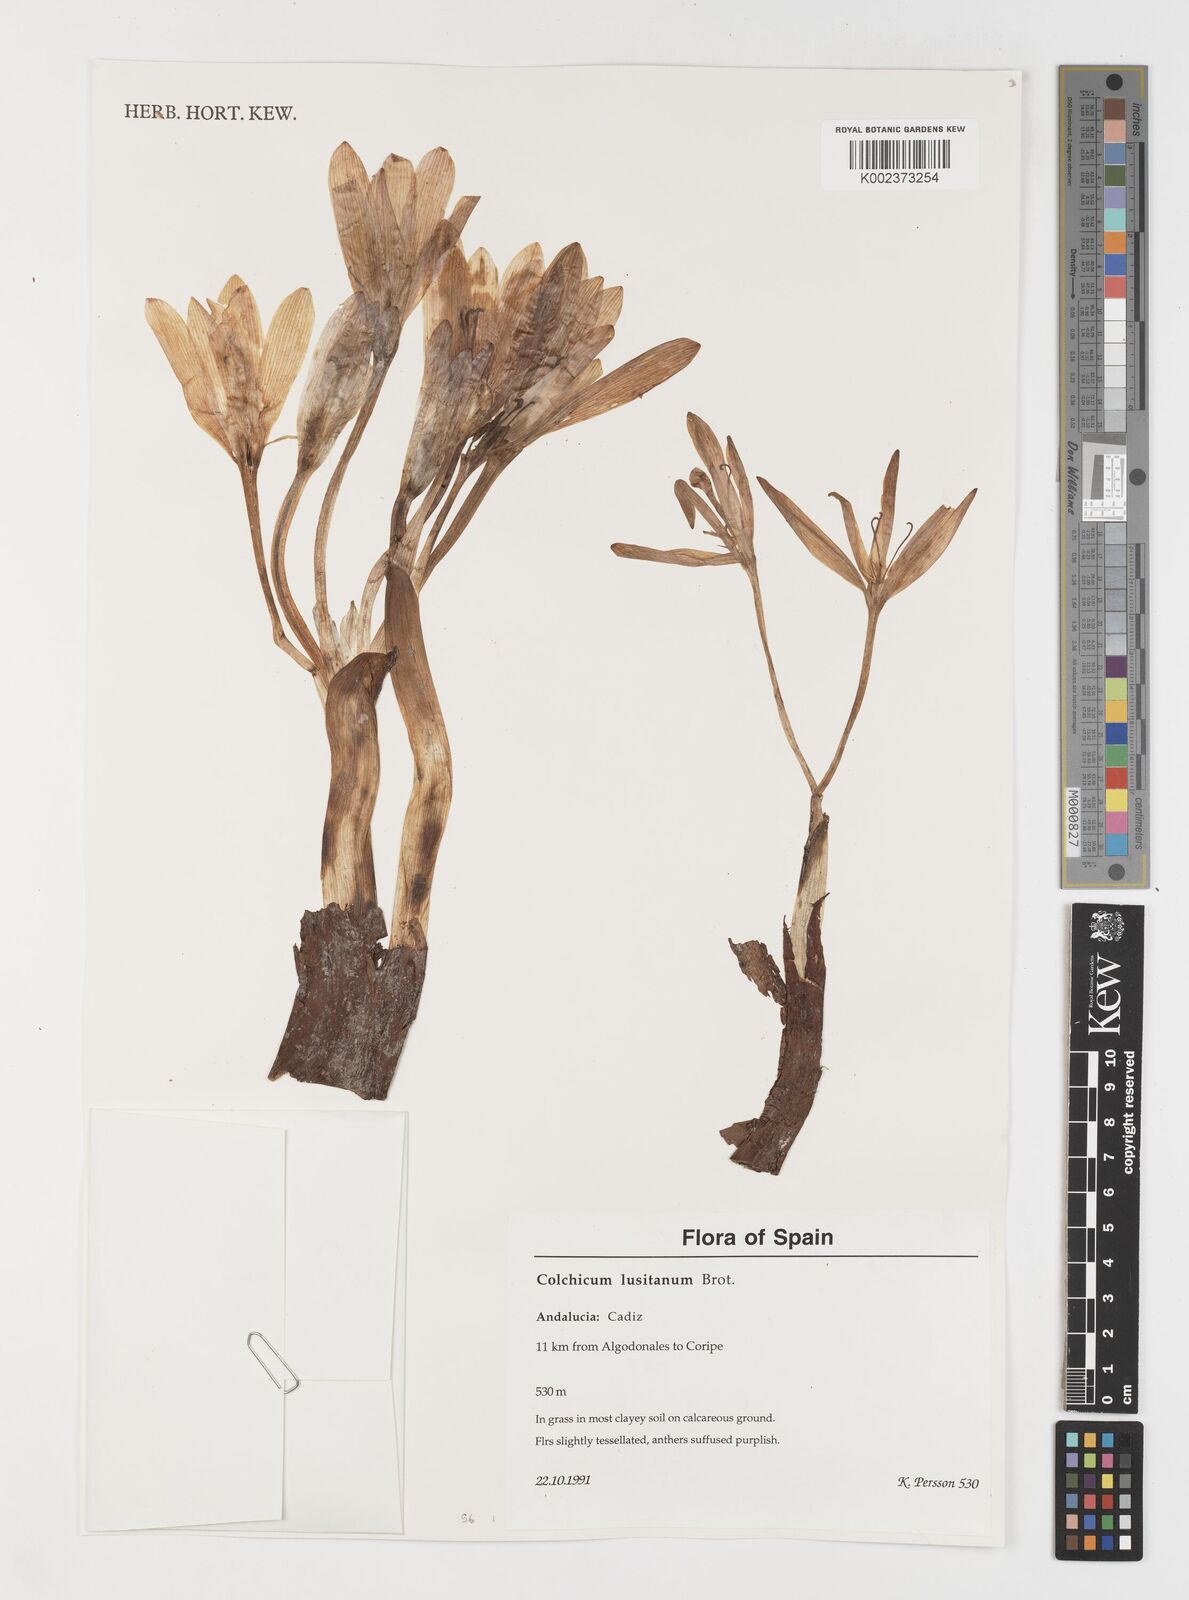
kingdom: Plantae
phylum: Tracheophyta
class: Liliopsida
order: Liliales
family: Colchicaceae
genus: Colchicum
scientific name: Colchicum lusitanum
